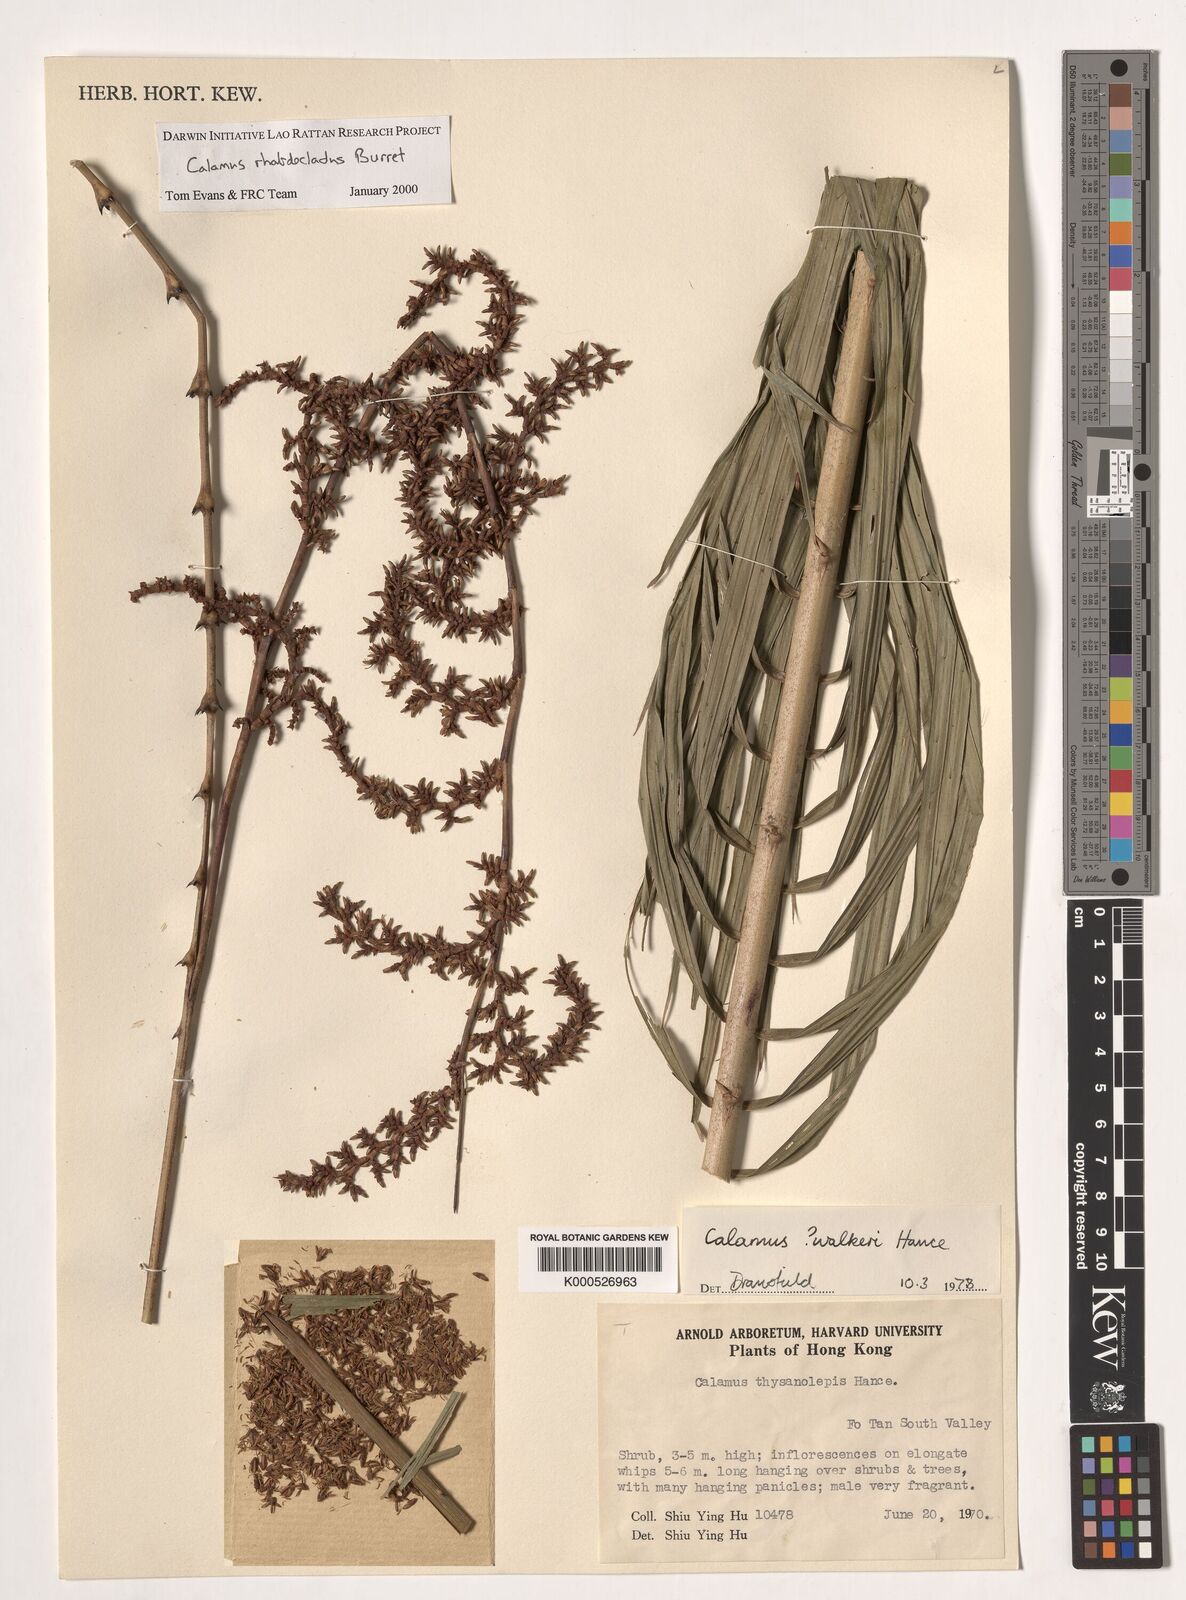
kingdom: Plantae
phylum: Tracheophyta
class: Liliopsida
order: Arecales
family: Arecaceae
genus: Calamus
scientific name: Calamus rhabdocladus
